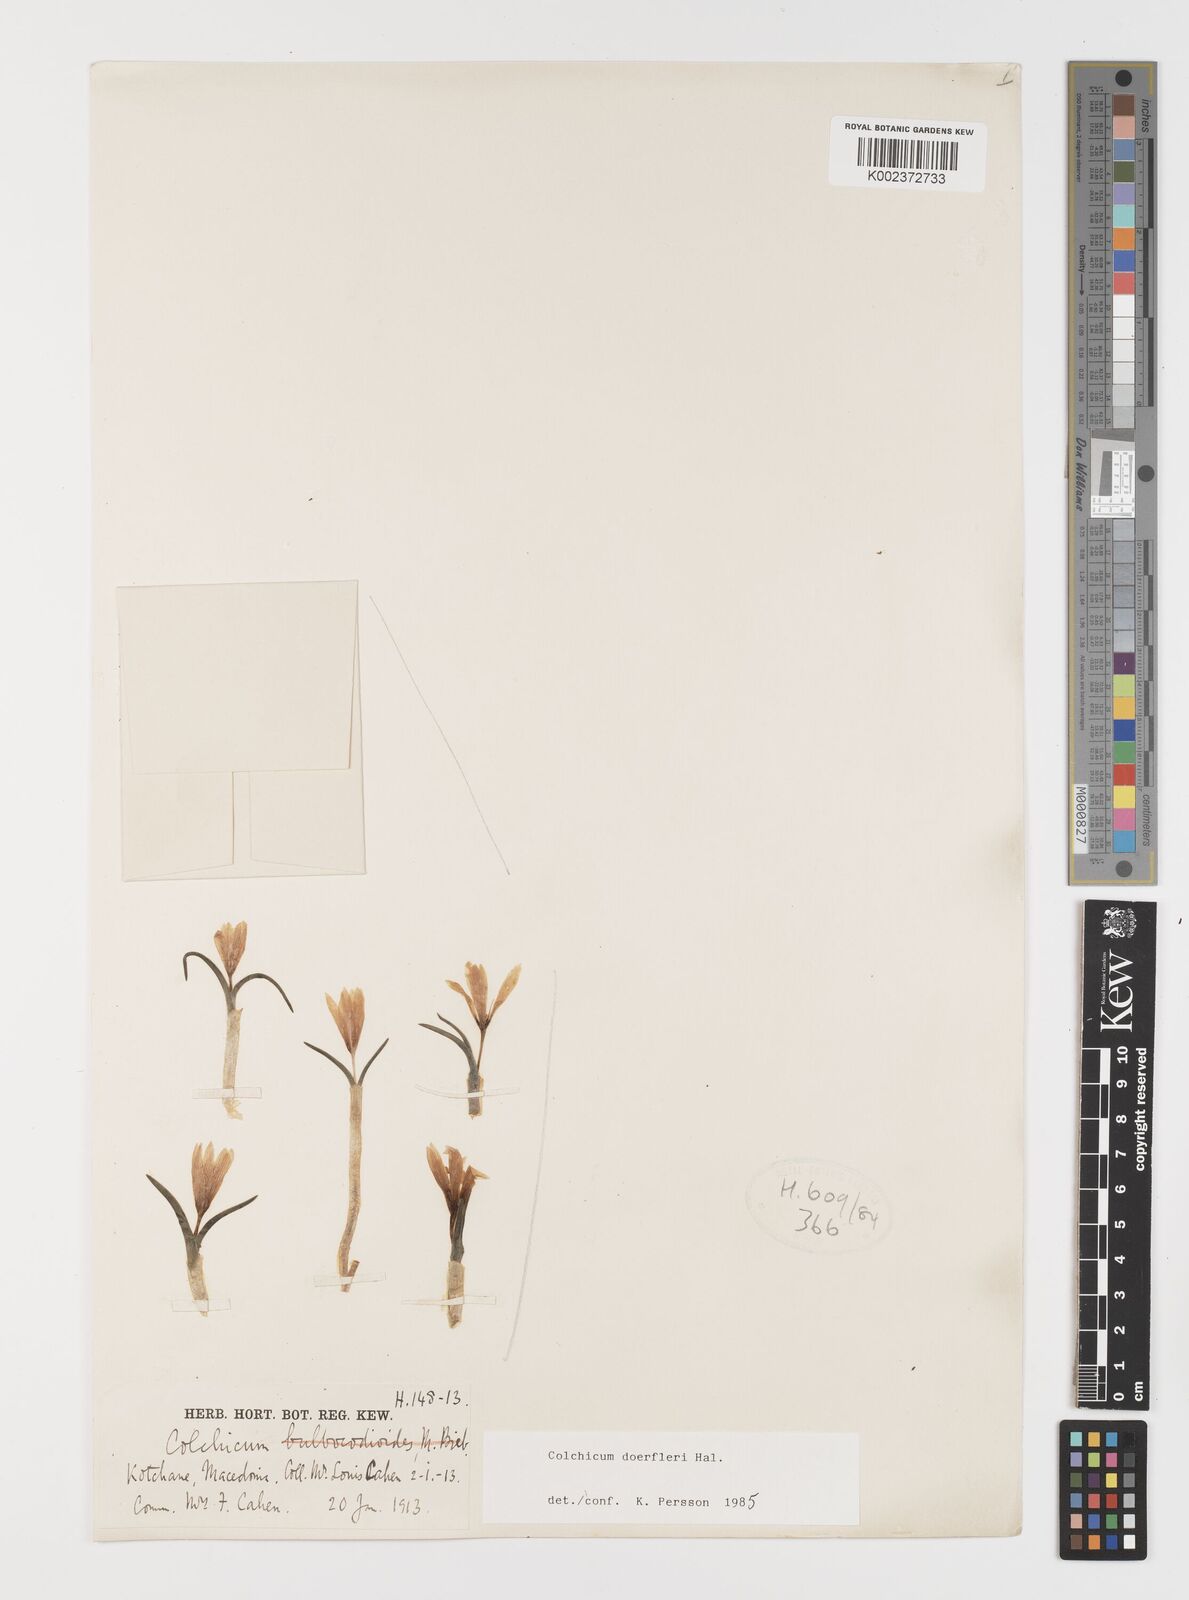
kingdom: Plantae
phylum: Tracheophyta
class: Liliopsida
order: Liliales
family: Colchicaceae
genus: Colchicum
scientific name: Colchicum doerfleri
